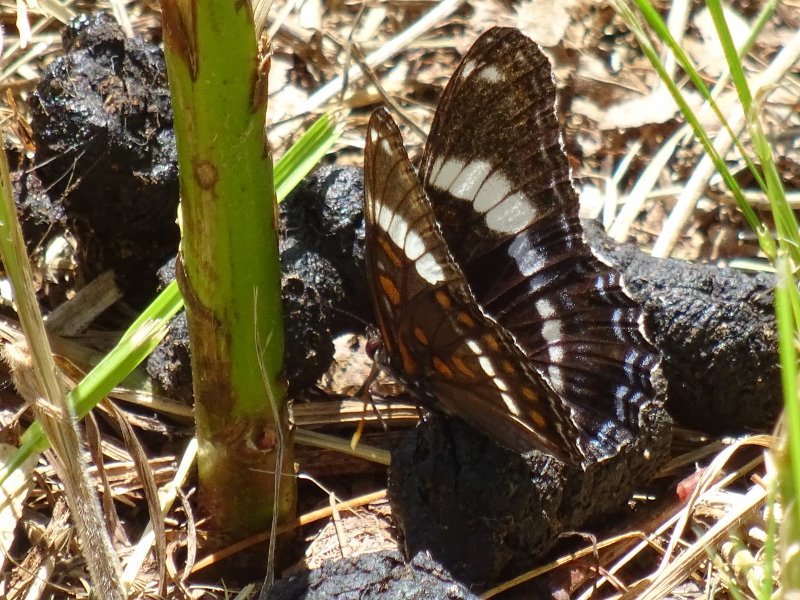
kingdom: Animalia
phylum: Arthropoda
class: Insecta
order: Lepidoptera
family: Nymphalidae
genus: Limenitis
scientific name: Limenitis arthemis
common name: Red-spotted Admiral
